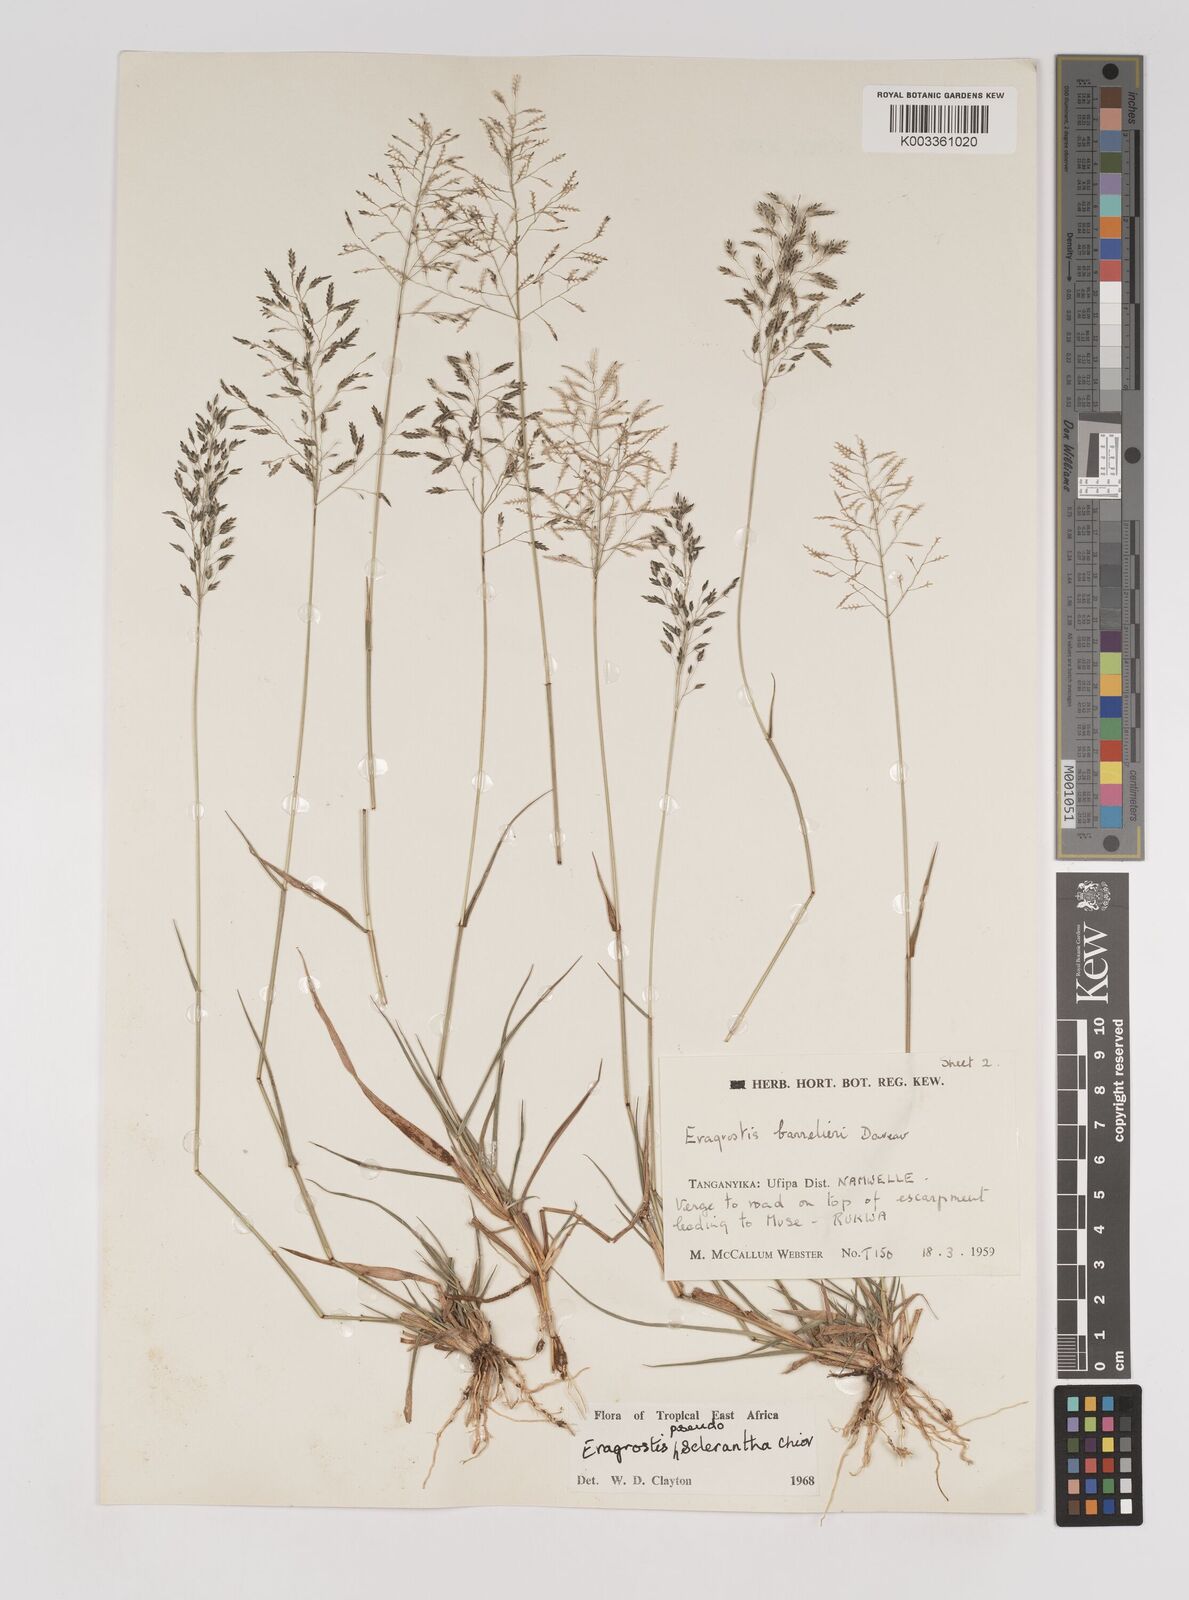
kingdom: Plantae
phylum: Tracheophyta
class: Liliopsida
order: Poales
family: Poaceae
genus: Eragrostis
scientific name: Eragrostis patentipilosa
